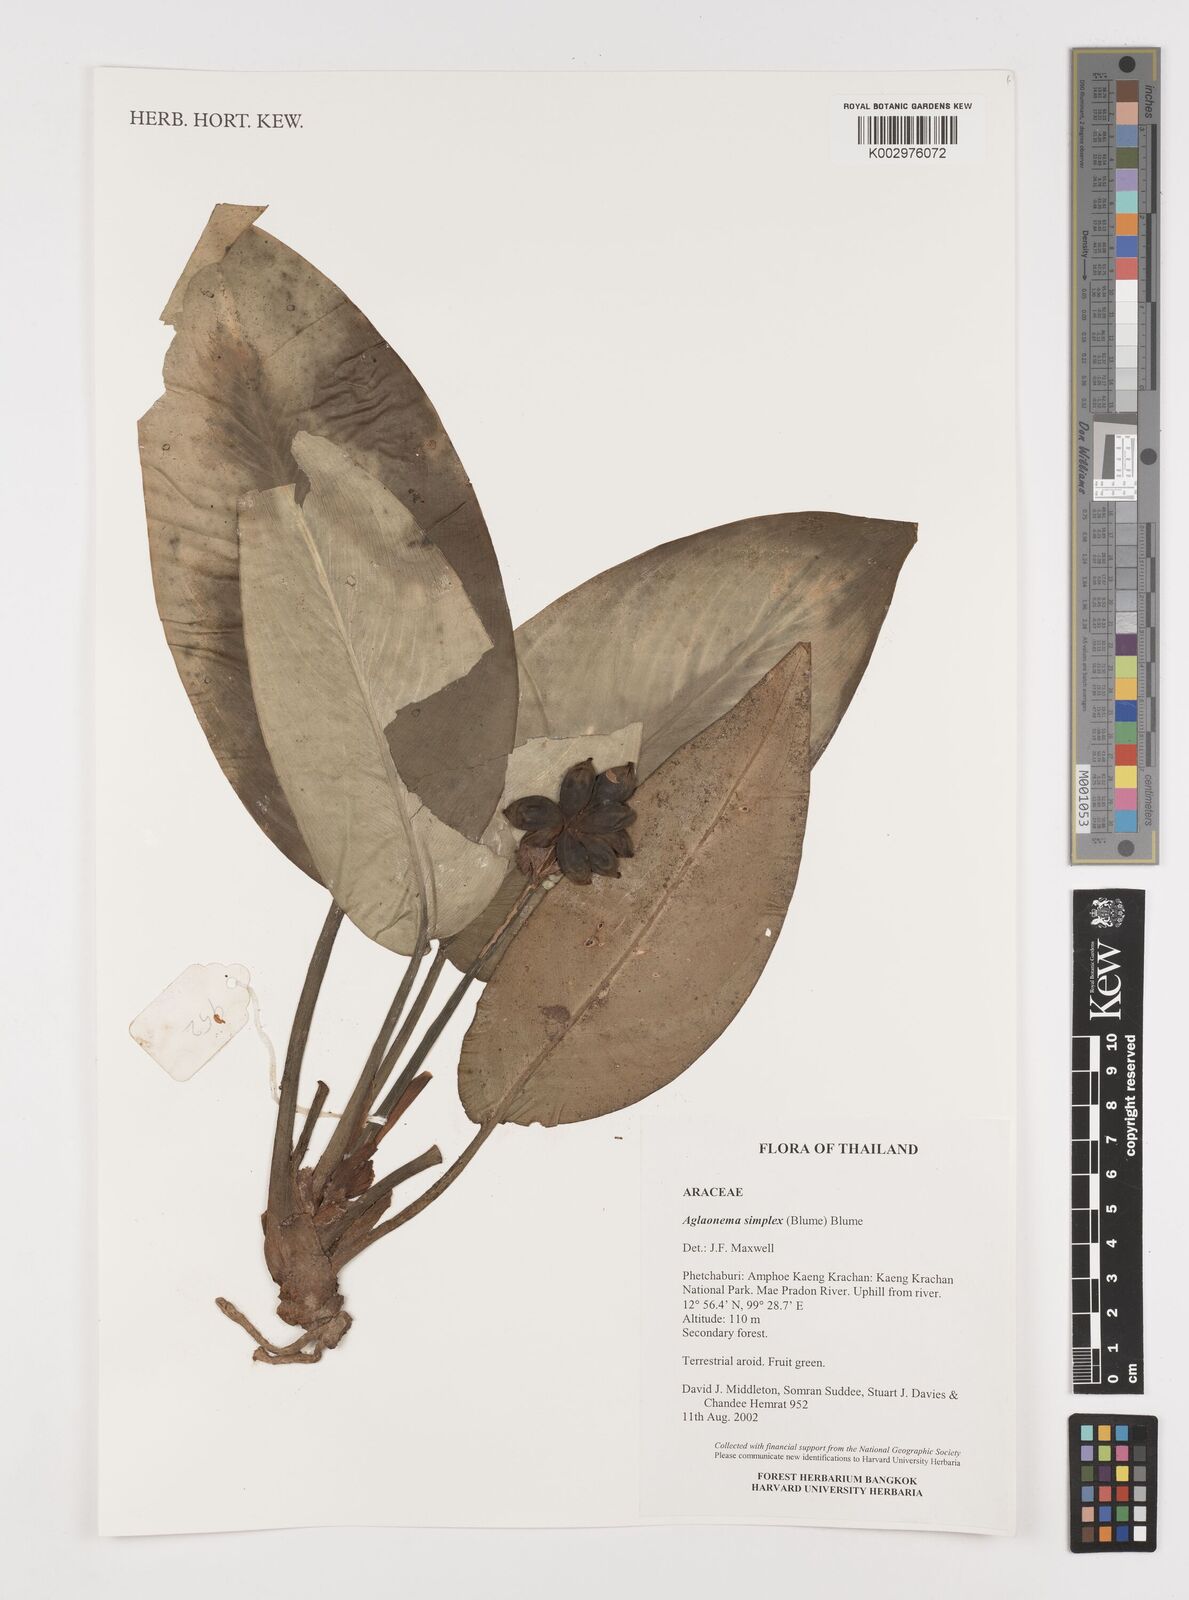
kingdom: Plantae
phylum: Tracheophyta
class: Liliopsida
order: Alismatales
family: Araceae
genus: Aglaonema
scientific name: Aglaonema simplex
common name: Malayan-sword
